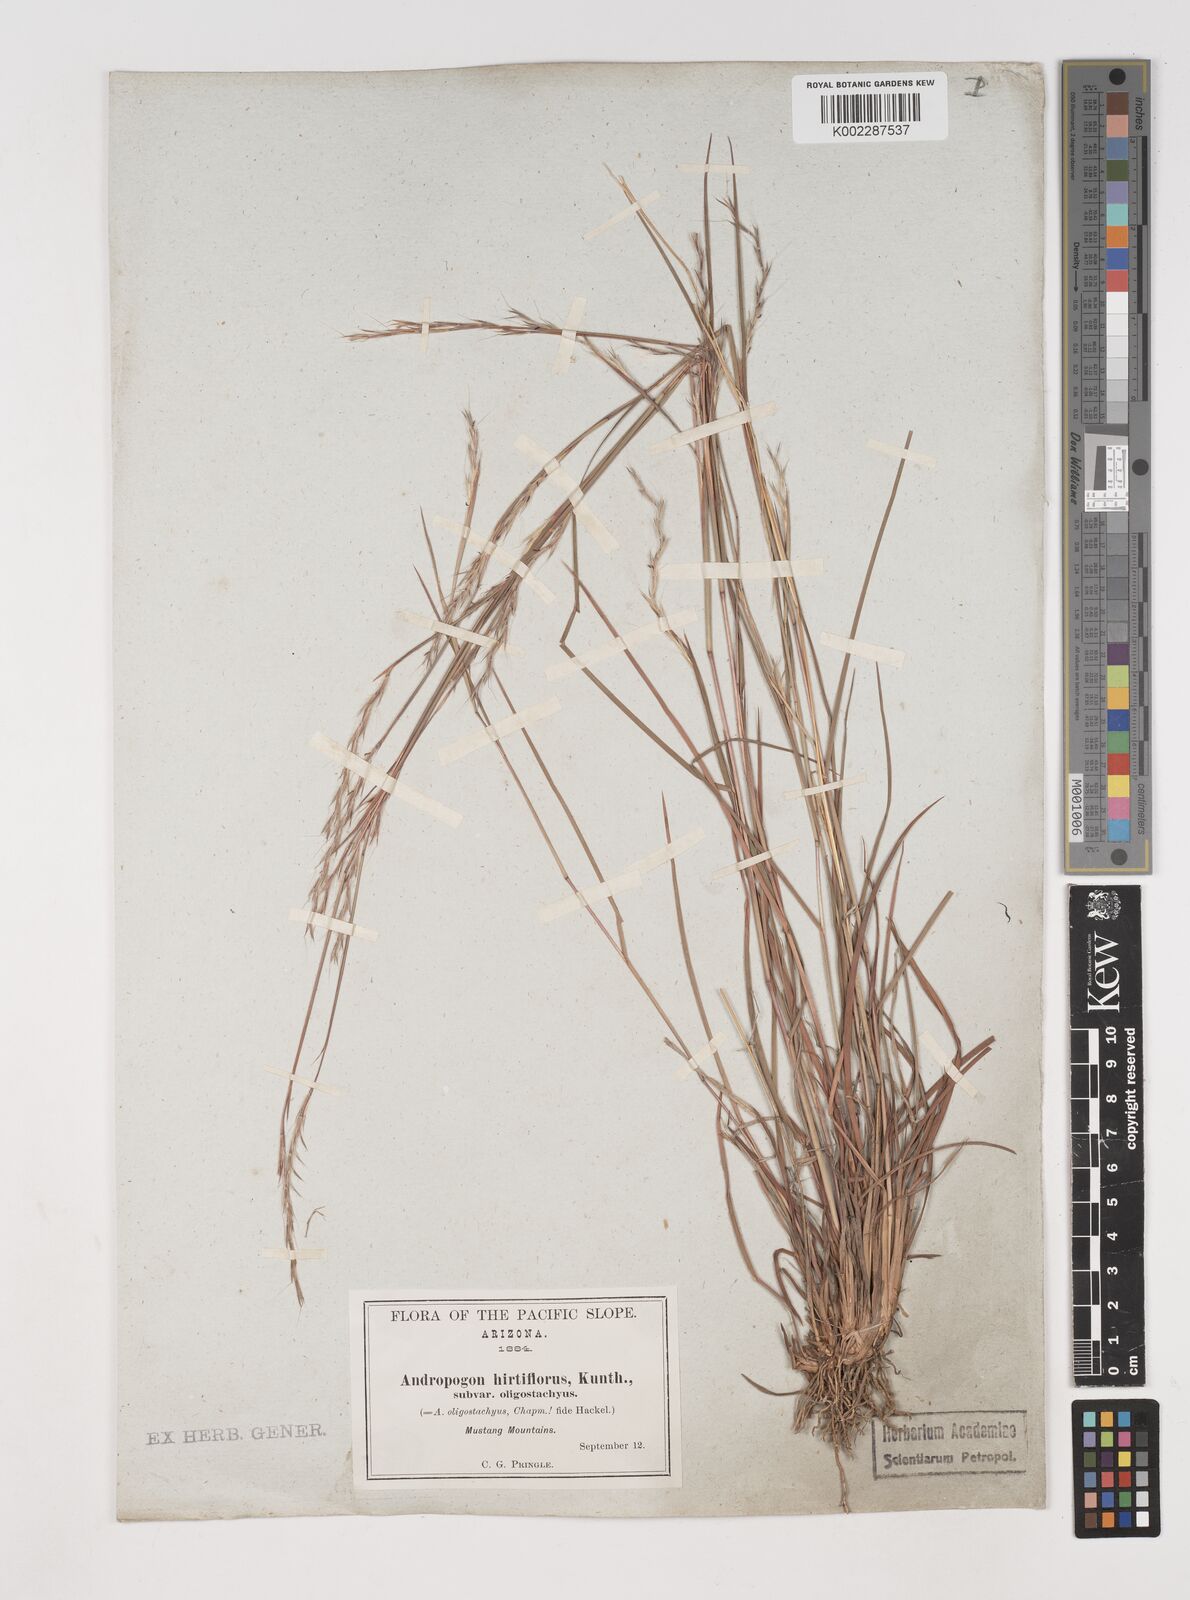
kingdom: Plantae
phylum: Tracheophyta
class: Liliopsida
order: Poales
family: Poaceae
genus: Schizachyrium
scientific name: Schizachyrium sanguineum
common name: Crimson bluestem
